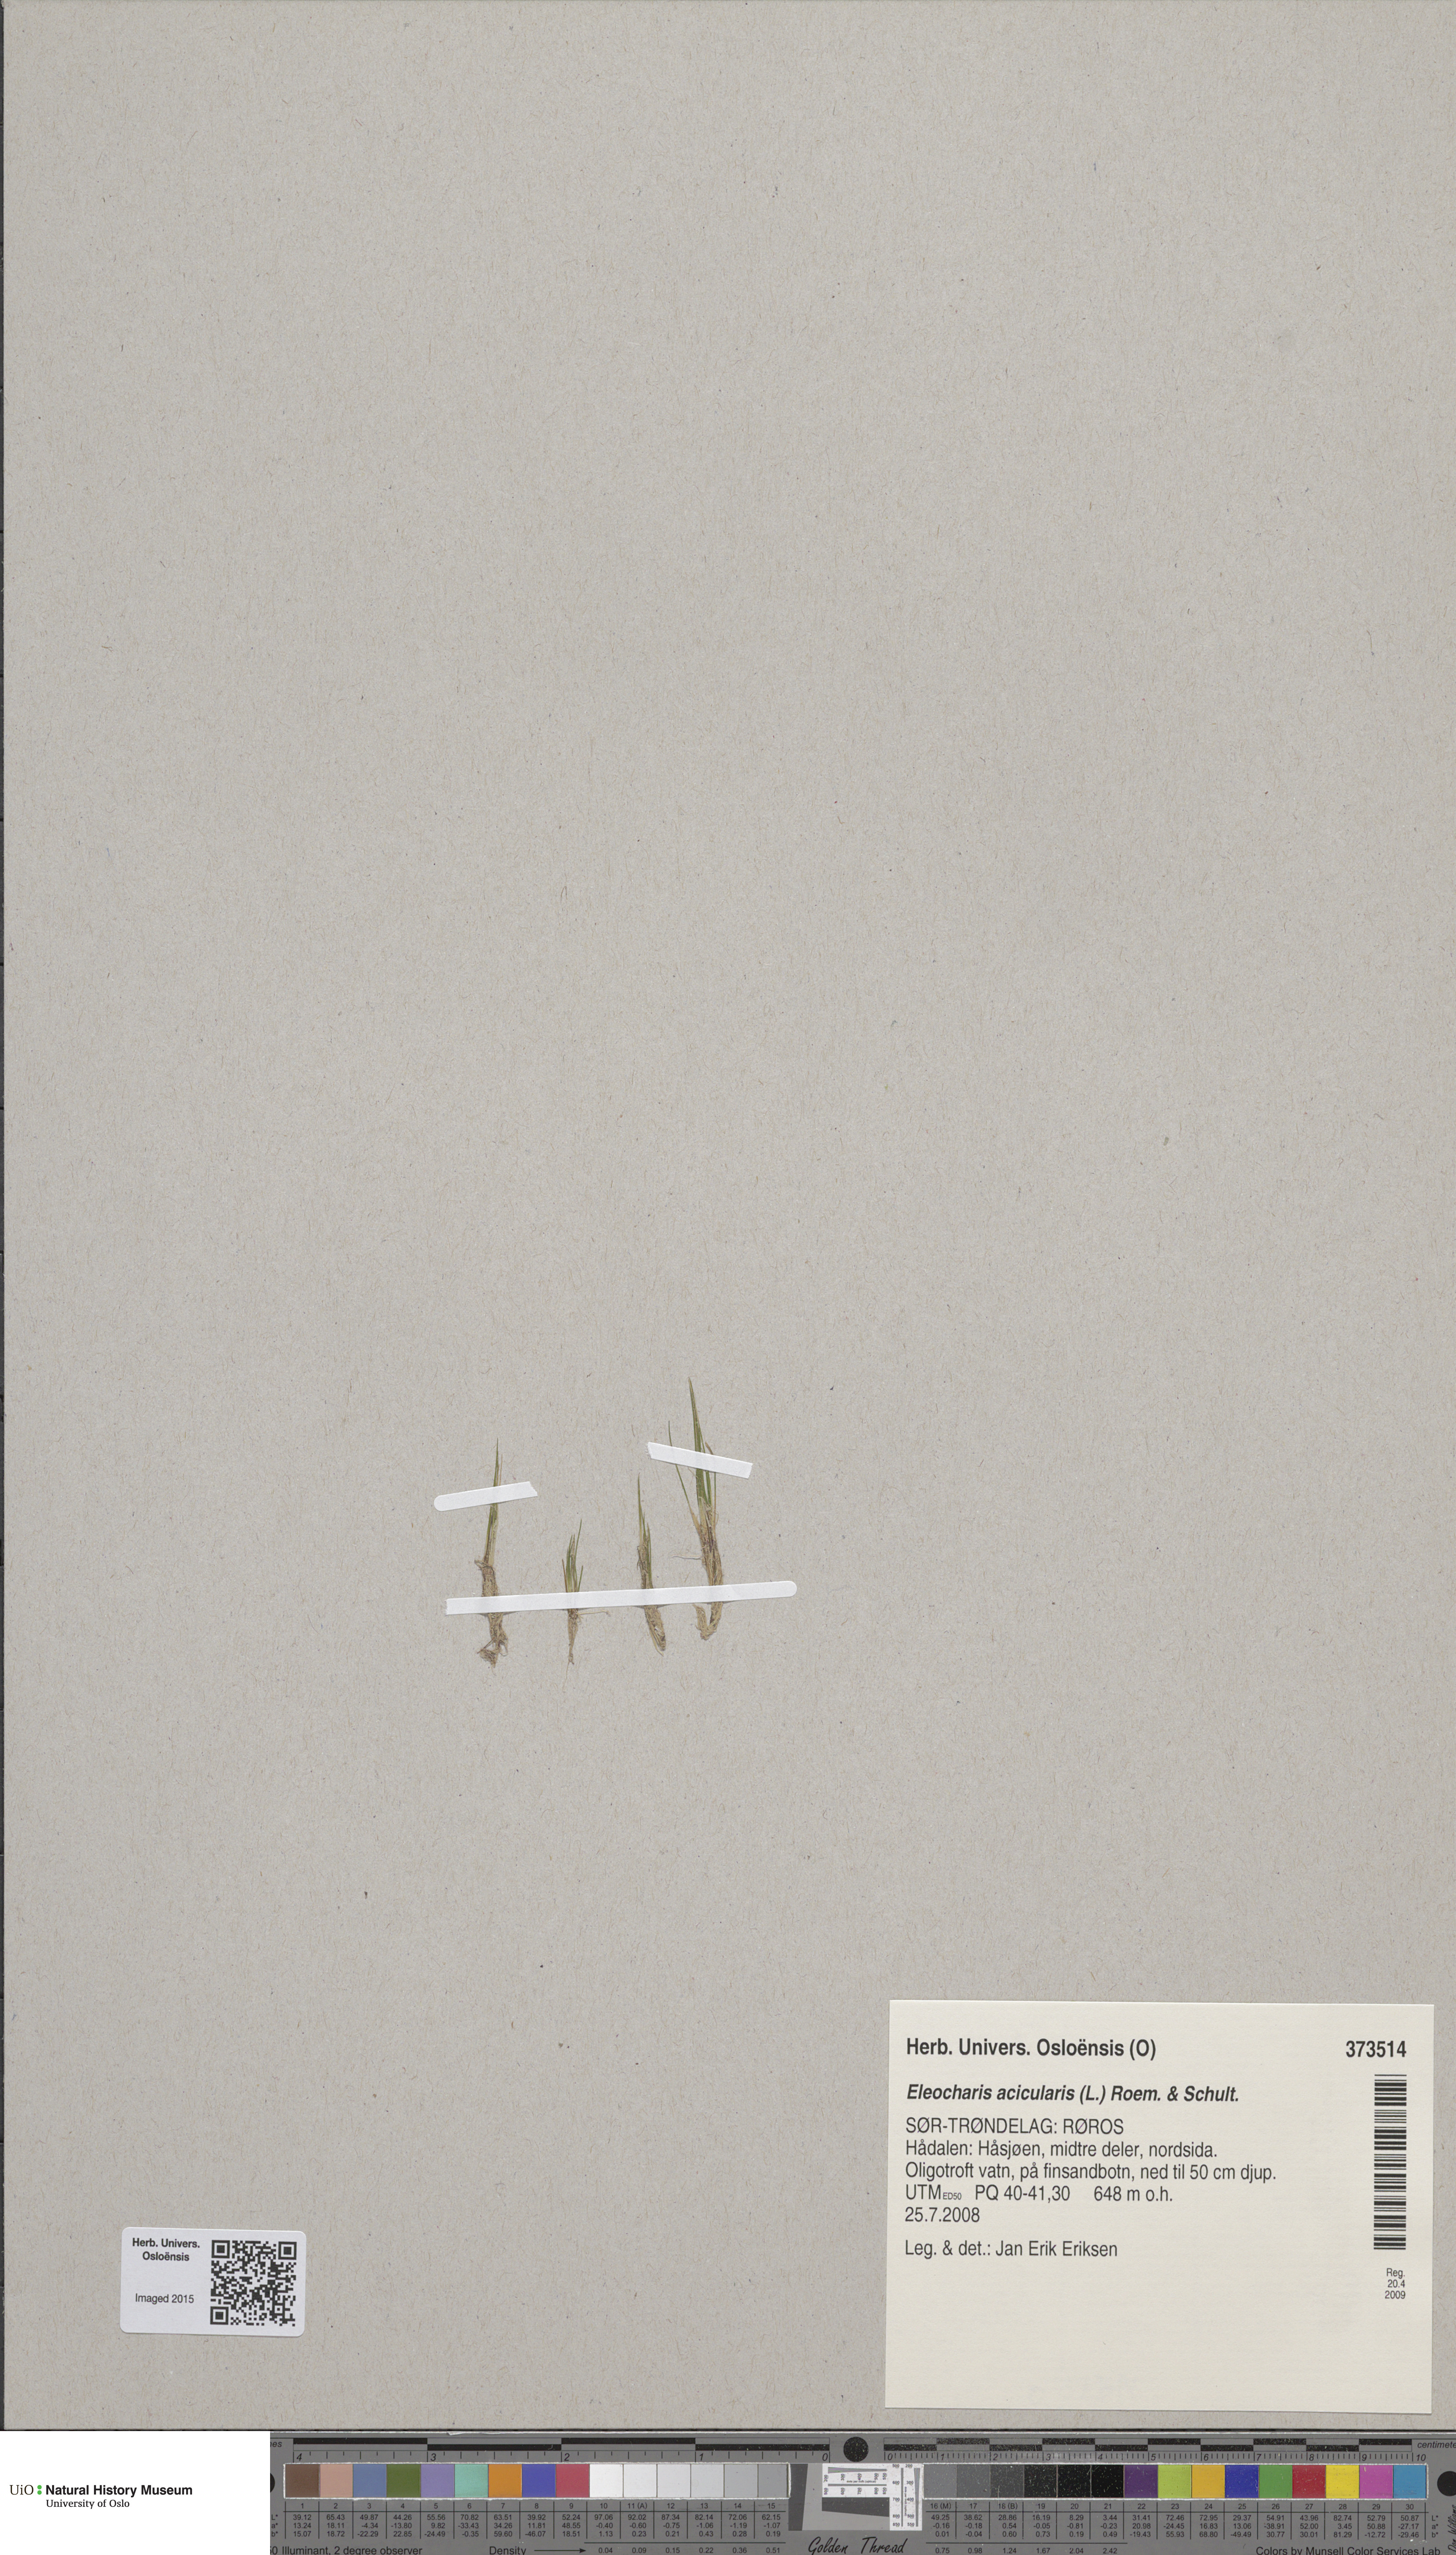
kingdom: Plantae
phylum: Tracheophyta
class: Liliopsida
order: Poales
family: Cyperaceae
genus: Eleocharis
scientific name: Eleocharis acicularis
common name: Needle spike-rush
